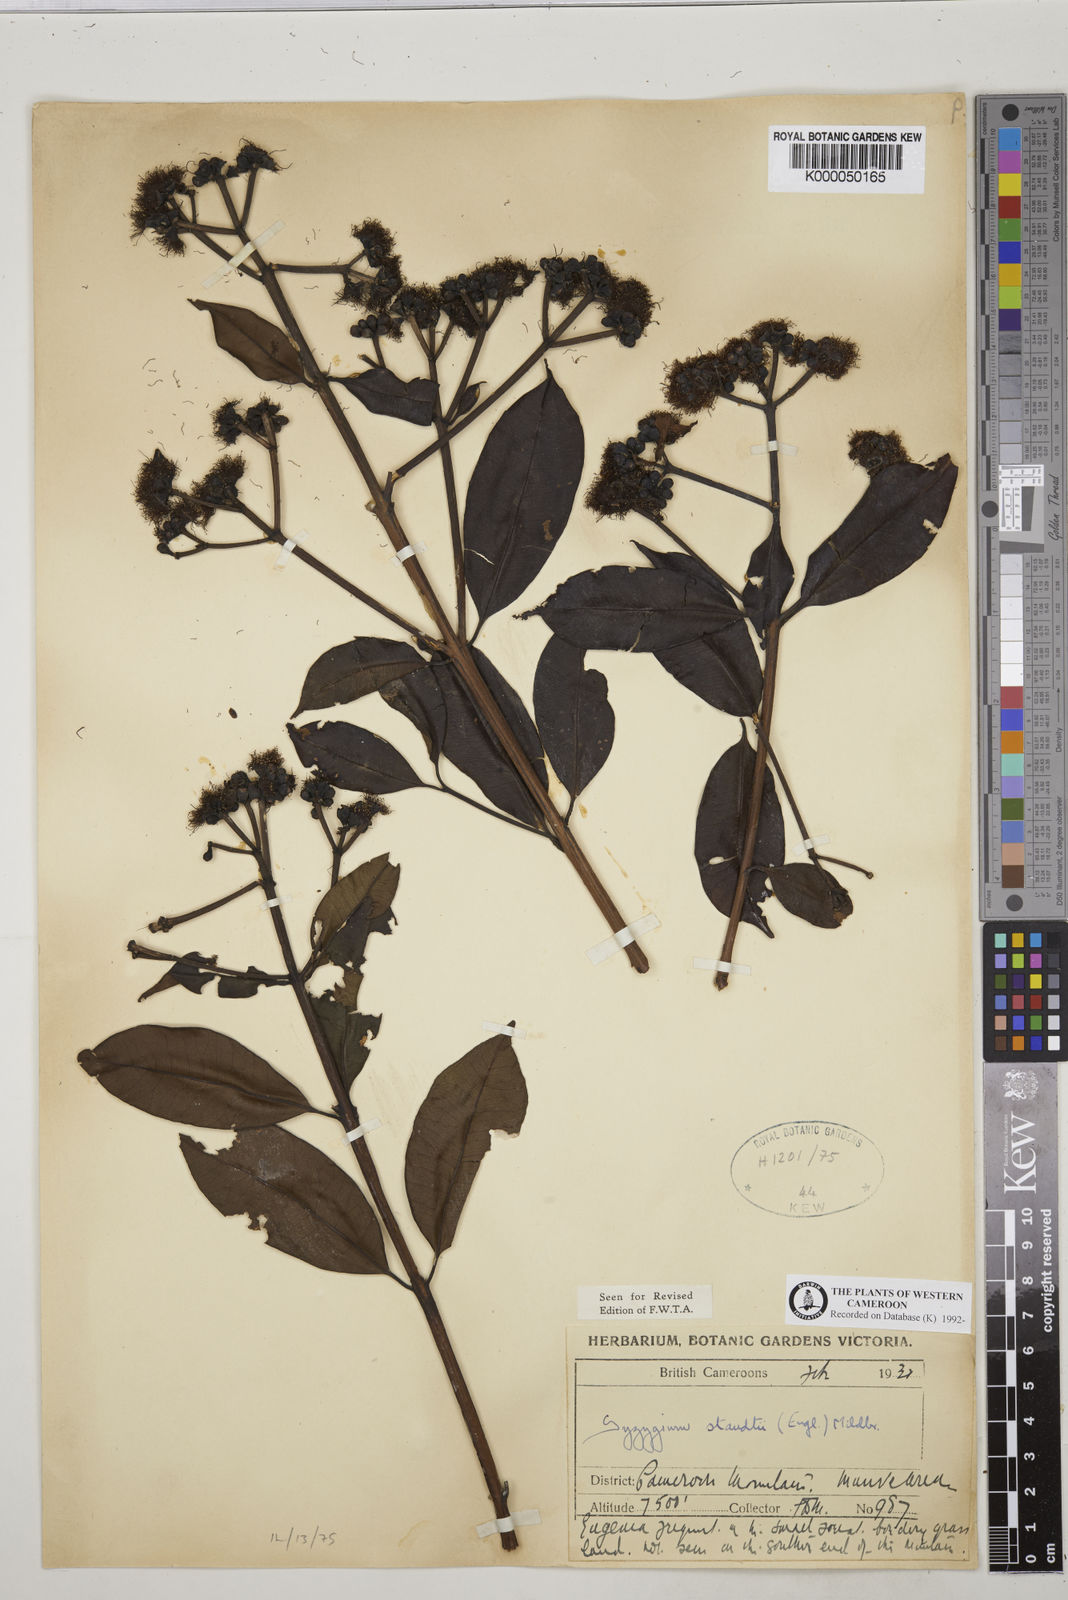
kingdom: Plantae
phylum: Tracheophyta
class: Magnoliopsida
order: Myrtales
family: Myrtaceae
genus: Syzygium
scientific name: Syzygium staudtii
